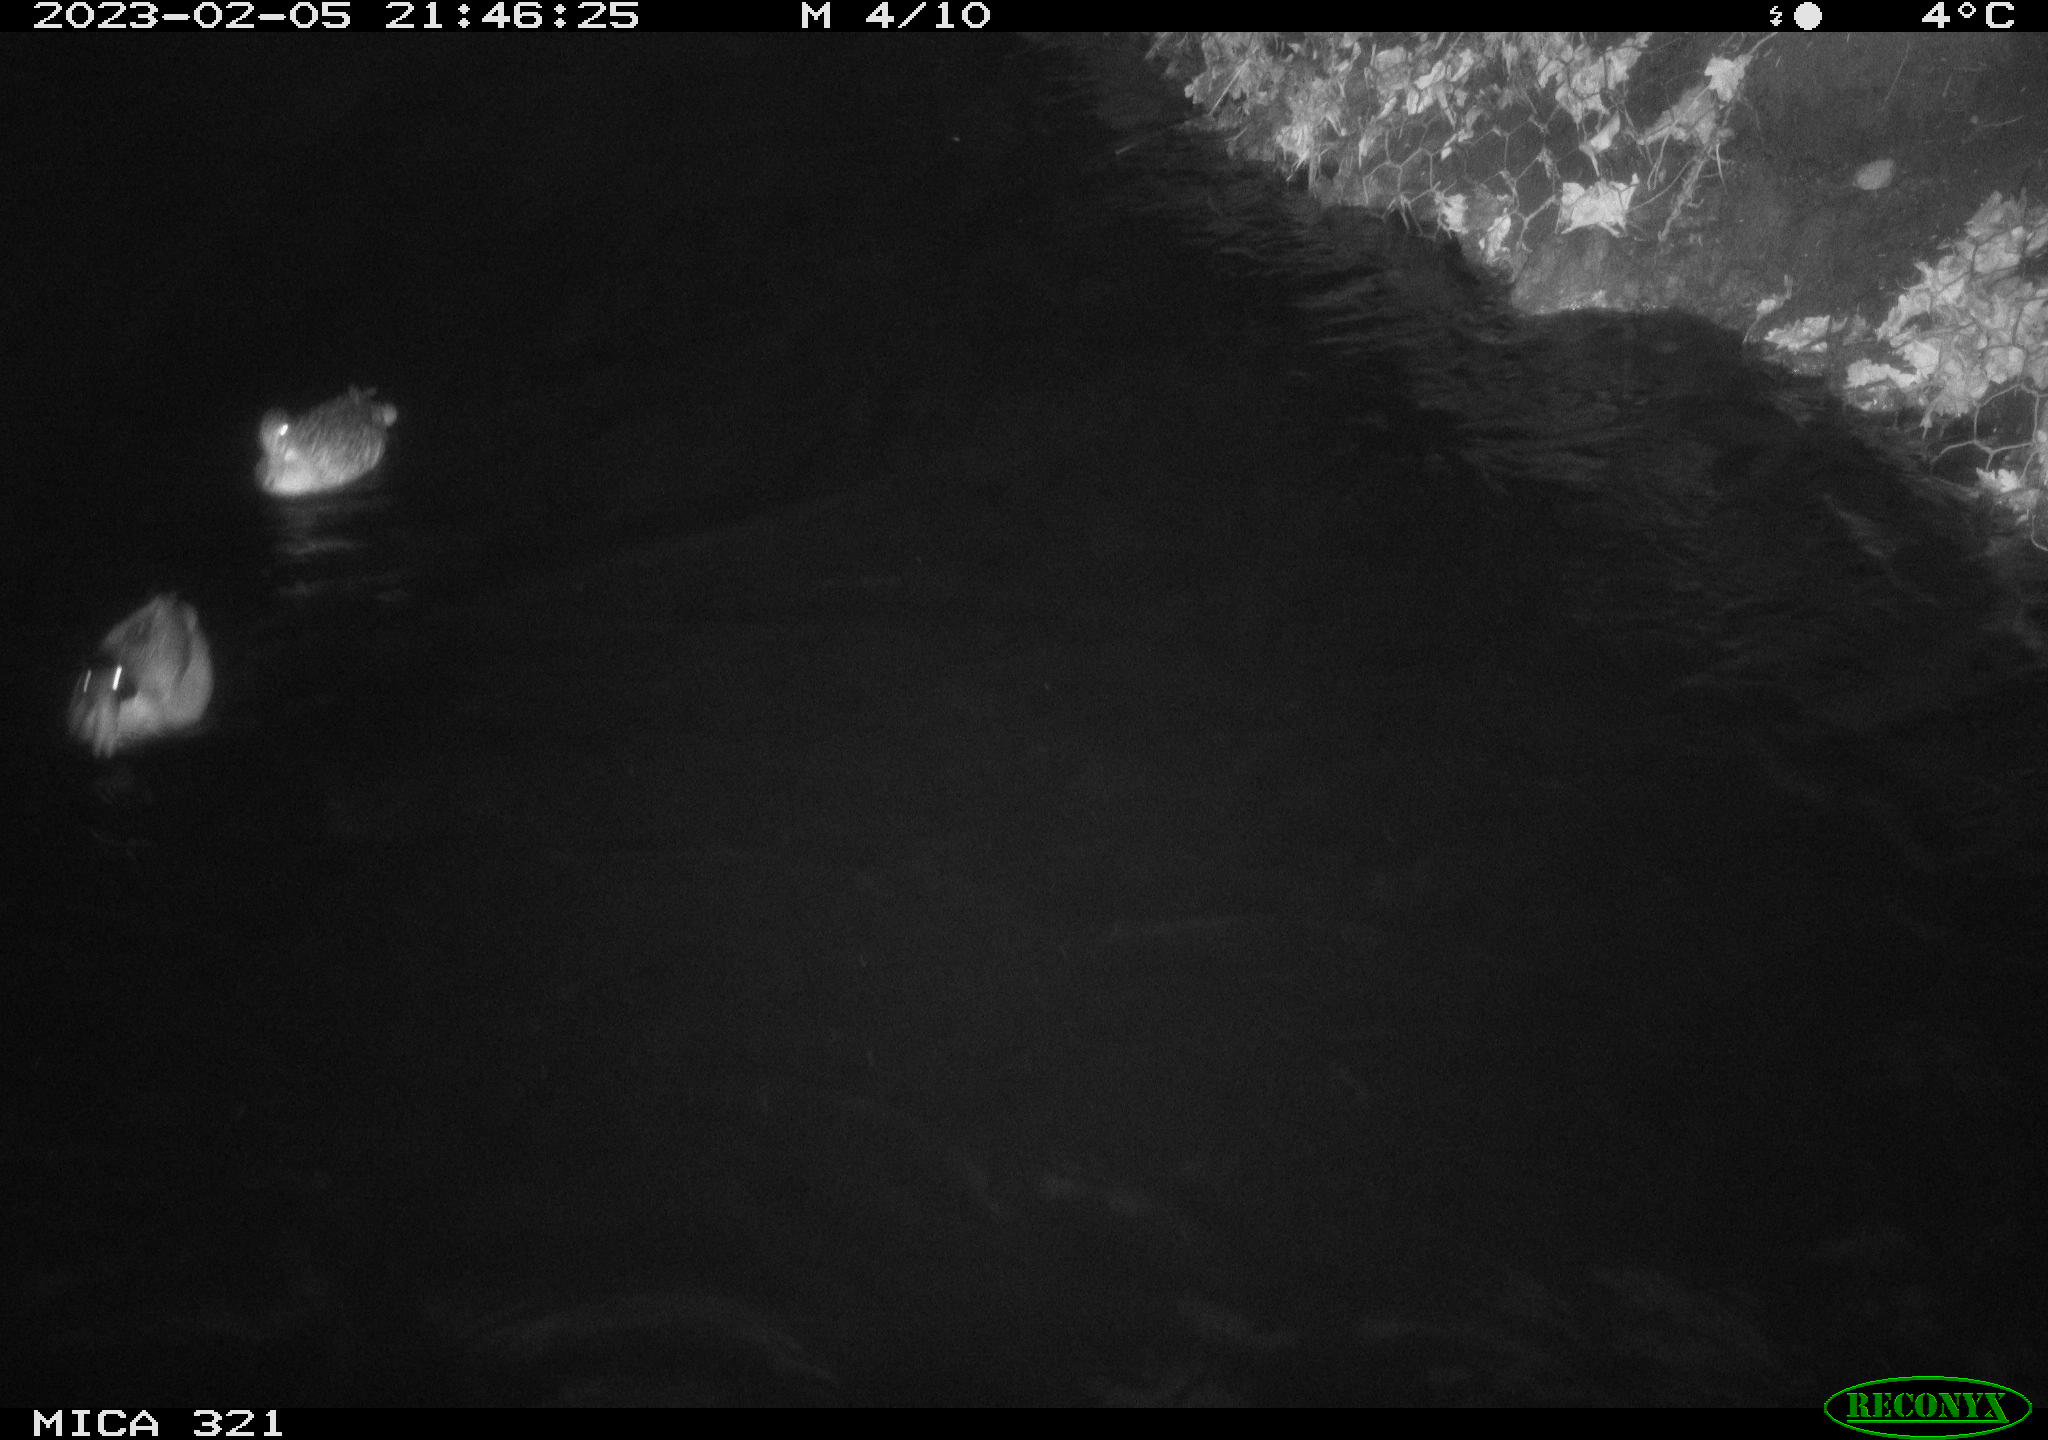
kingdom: Animalia
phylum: Chordata
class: Aves
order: Anseriformes
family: Anatidae
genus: Anas
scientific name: Anas
